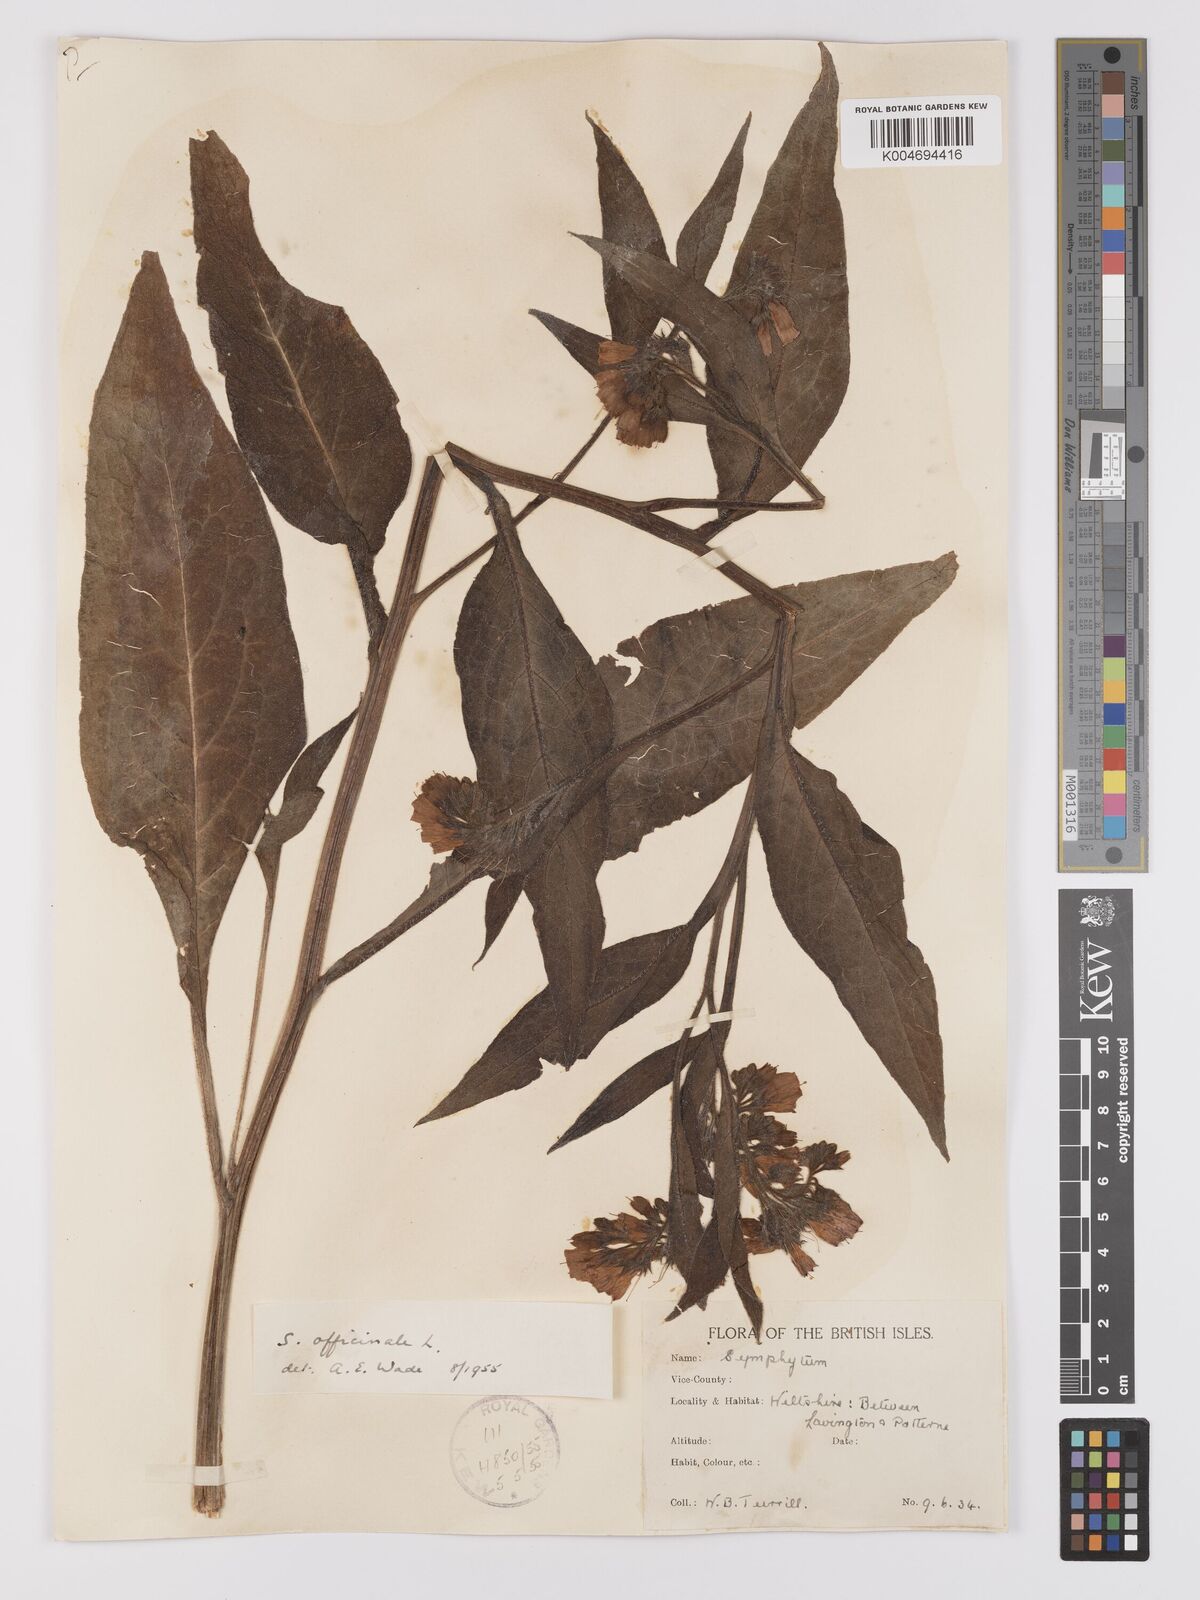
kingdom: Plantae
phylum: Tracheophyta
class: Magnoliopsida
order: Boraginales
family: Boraginaceae
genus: Symphytum
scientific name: Symphytum officinale
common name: Common comfrey
